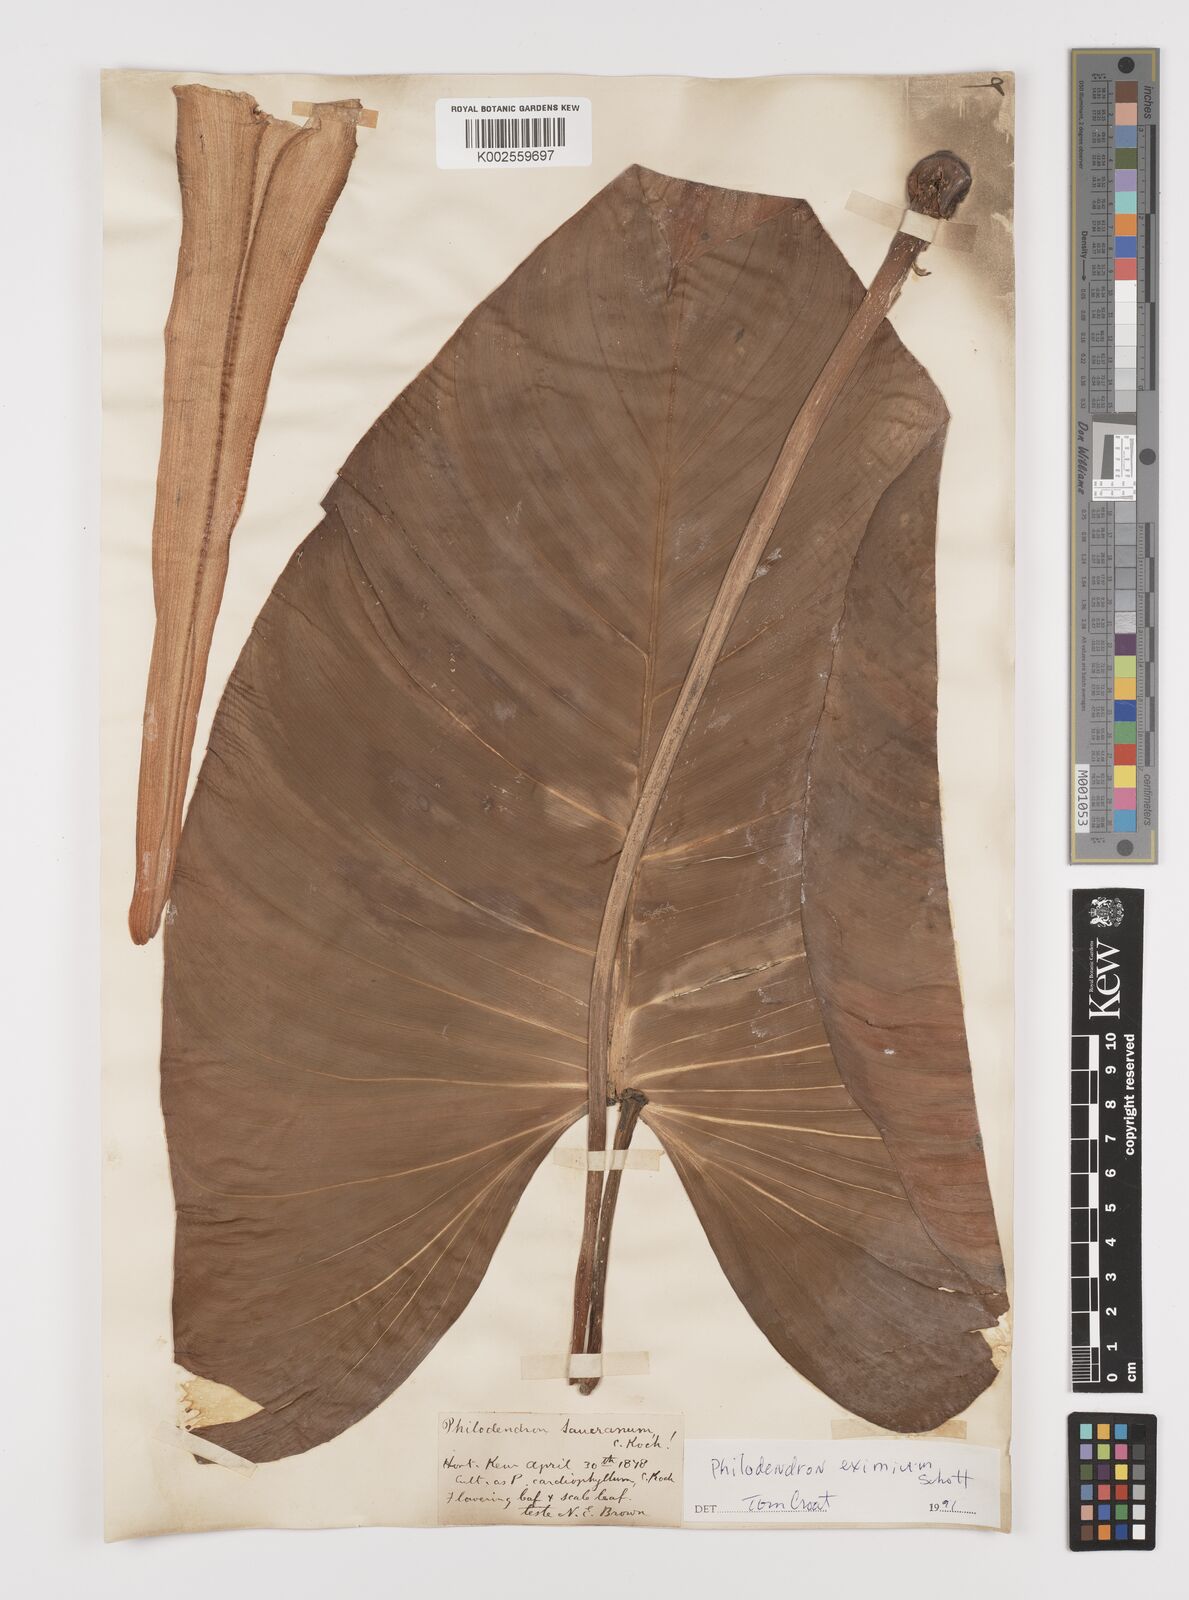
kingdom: Plantae
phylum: Tracheophyta
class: Liliopsida
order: Alismatales
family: Araceae
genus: Philodendron
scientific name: Philodendron eximium
